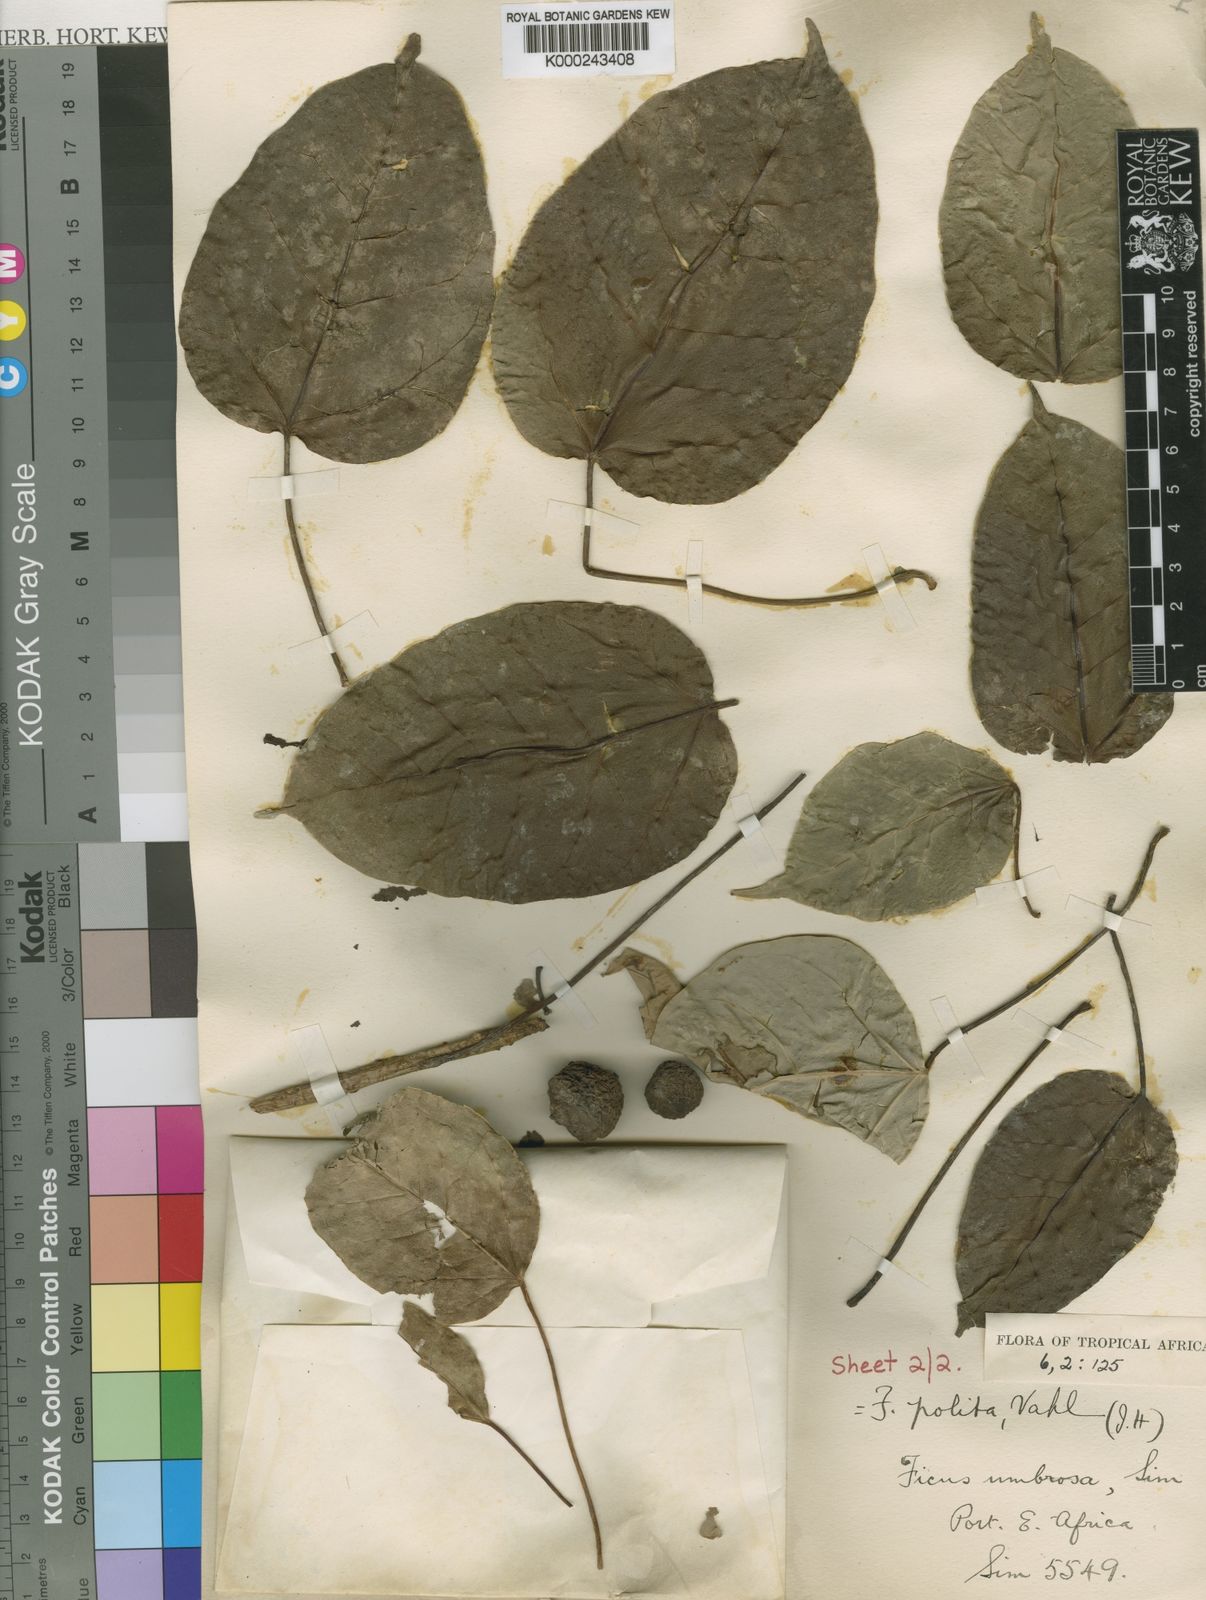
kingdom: Plantae
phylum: Tracheophyta
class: Magnoliopsida
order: Rosales
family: Moraceae
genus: Ficus
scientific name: Ficus polita
